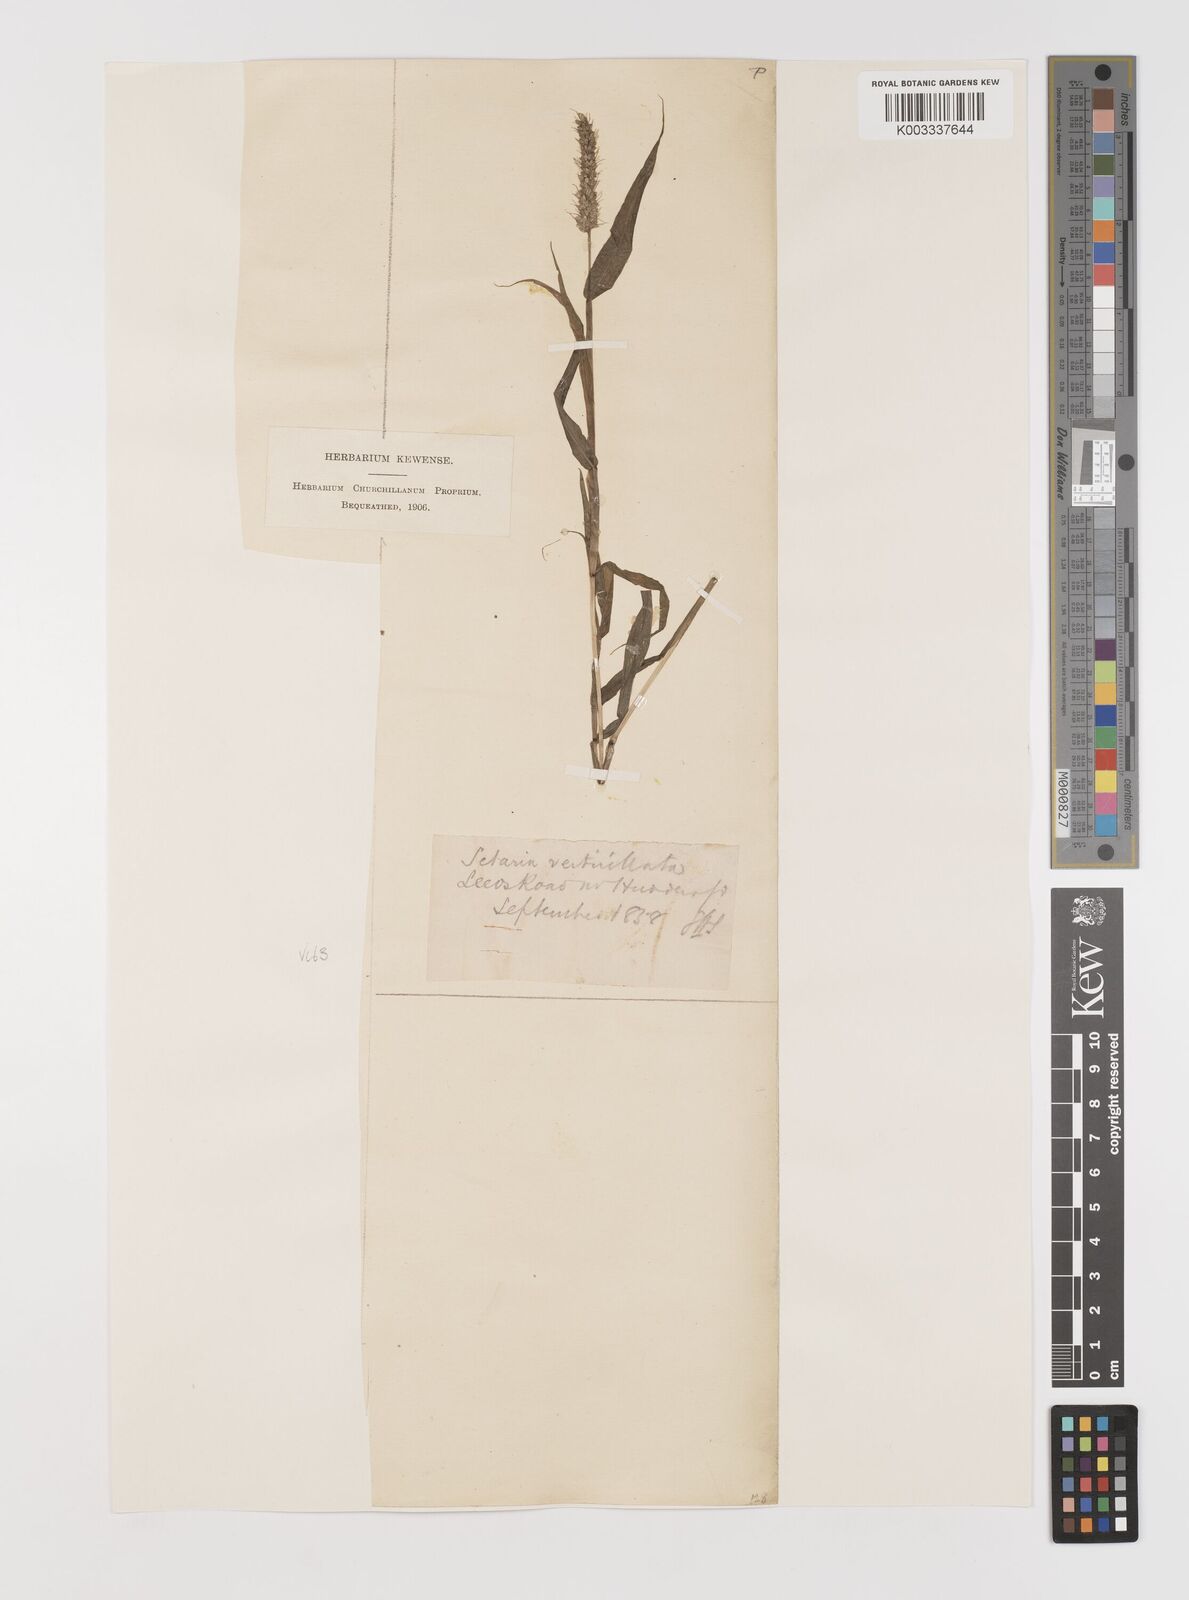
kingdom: Plantae
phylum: Tracheophyta
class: Liliopsida
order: Poales
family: Poaceae
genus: Setaria
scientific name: Setaria verticillata
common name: Hooked bristlegrass
